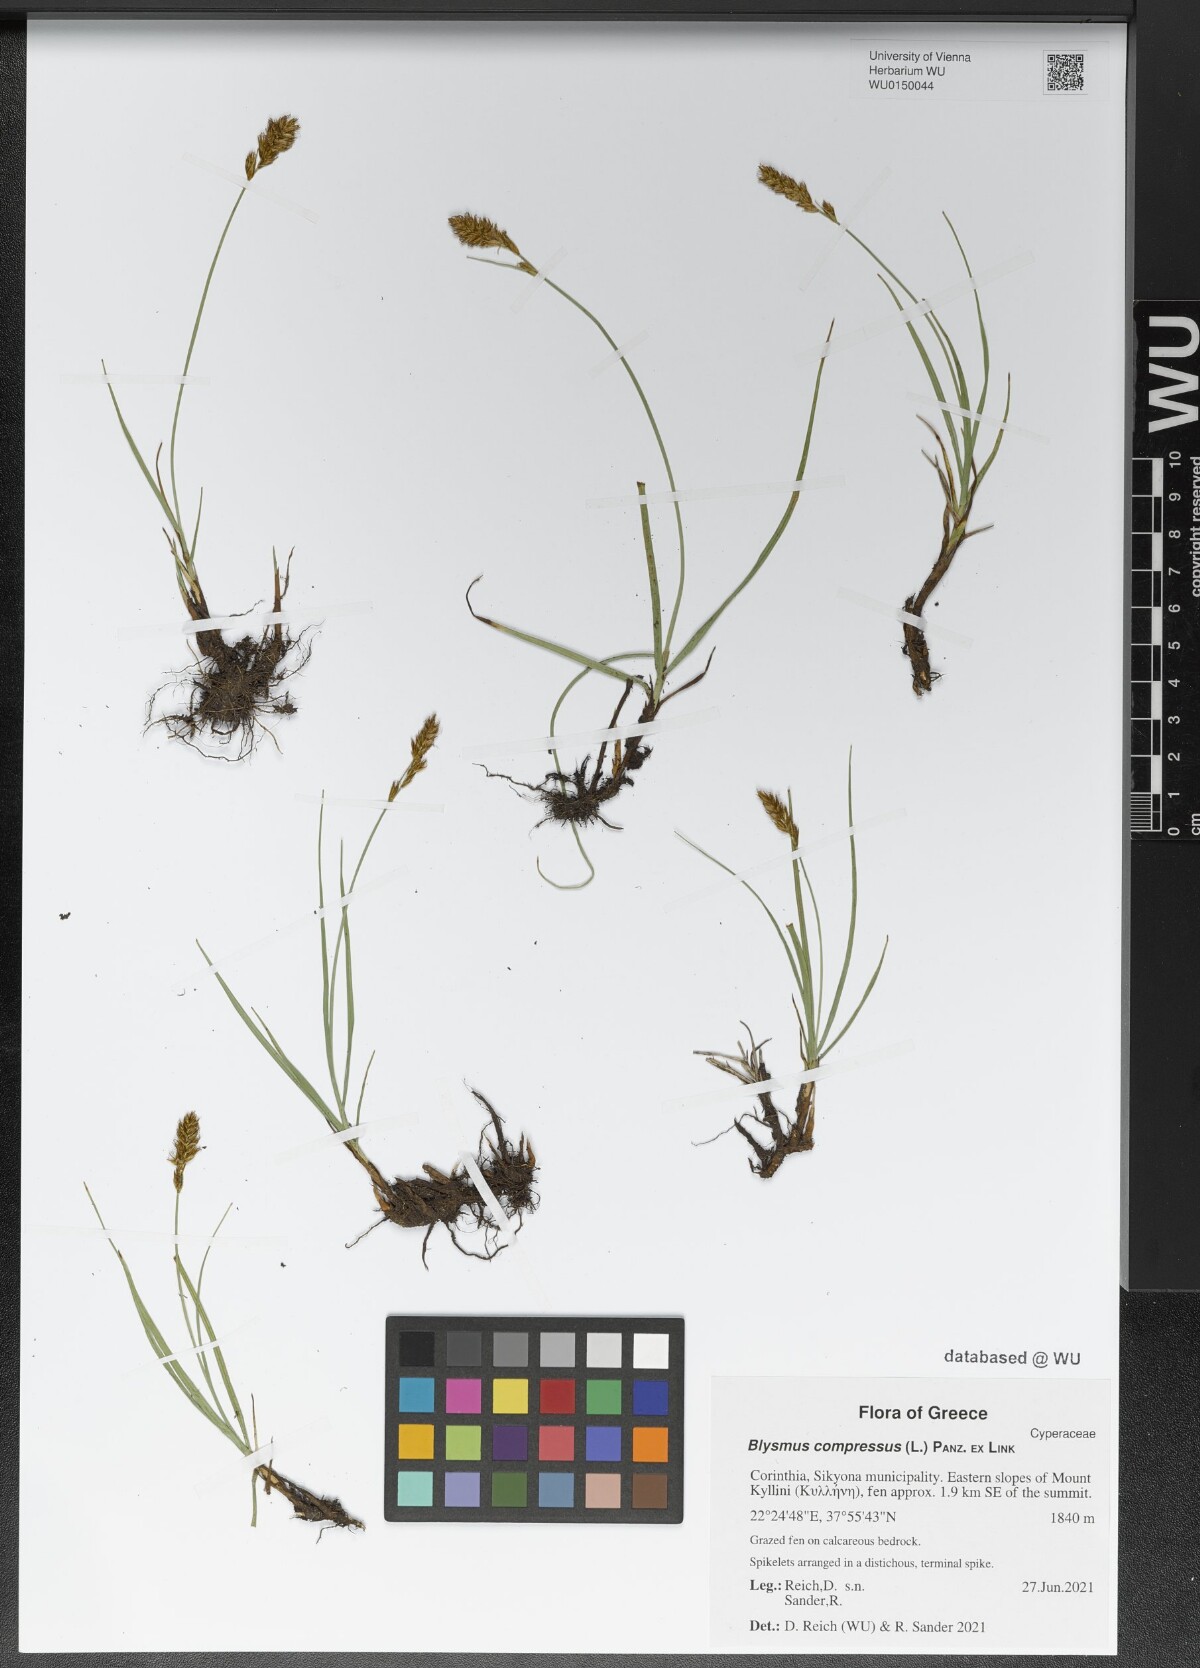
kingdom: Plantae
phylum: Tracheophyta
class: Liliopsida
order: Poales
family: Cyperaceae
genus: Blysmus
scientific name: Blysmus compressus
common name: Flat-sedge
